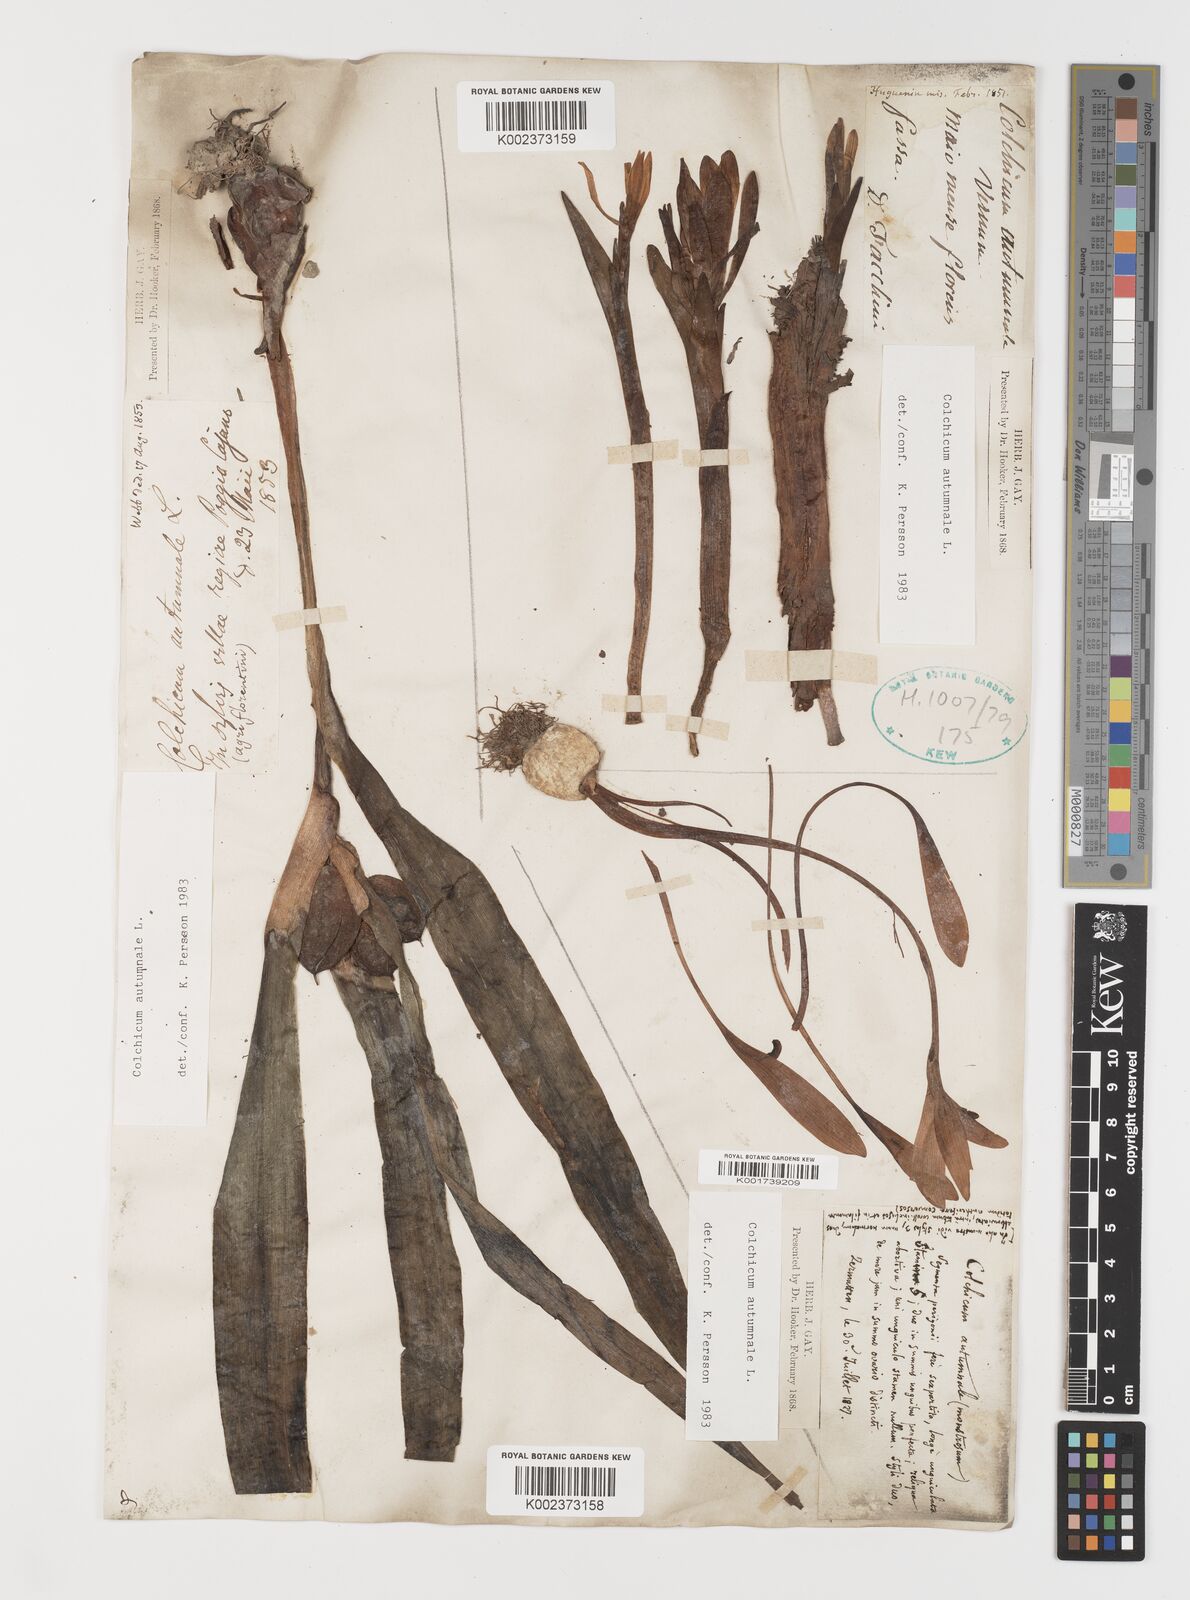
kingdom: Plantae
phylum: Tracheophyta
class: Liliopsida
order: Liliales
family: Colchicaceae
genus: Colchicum
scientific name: Colchicum autumnale
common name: Autumn crocus
